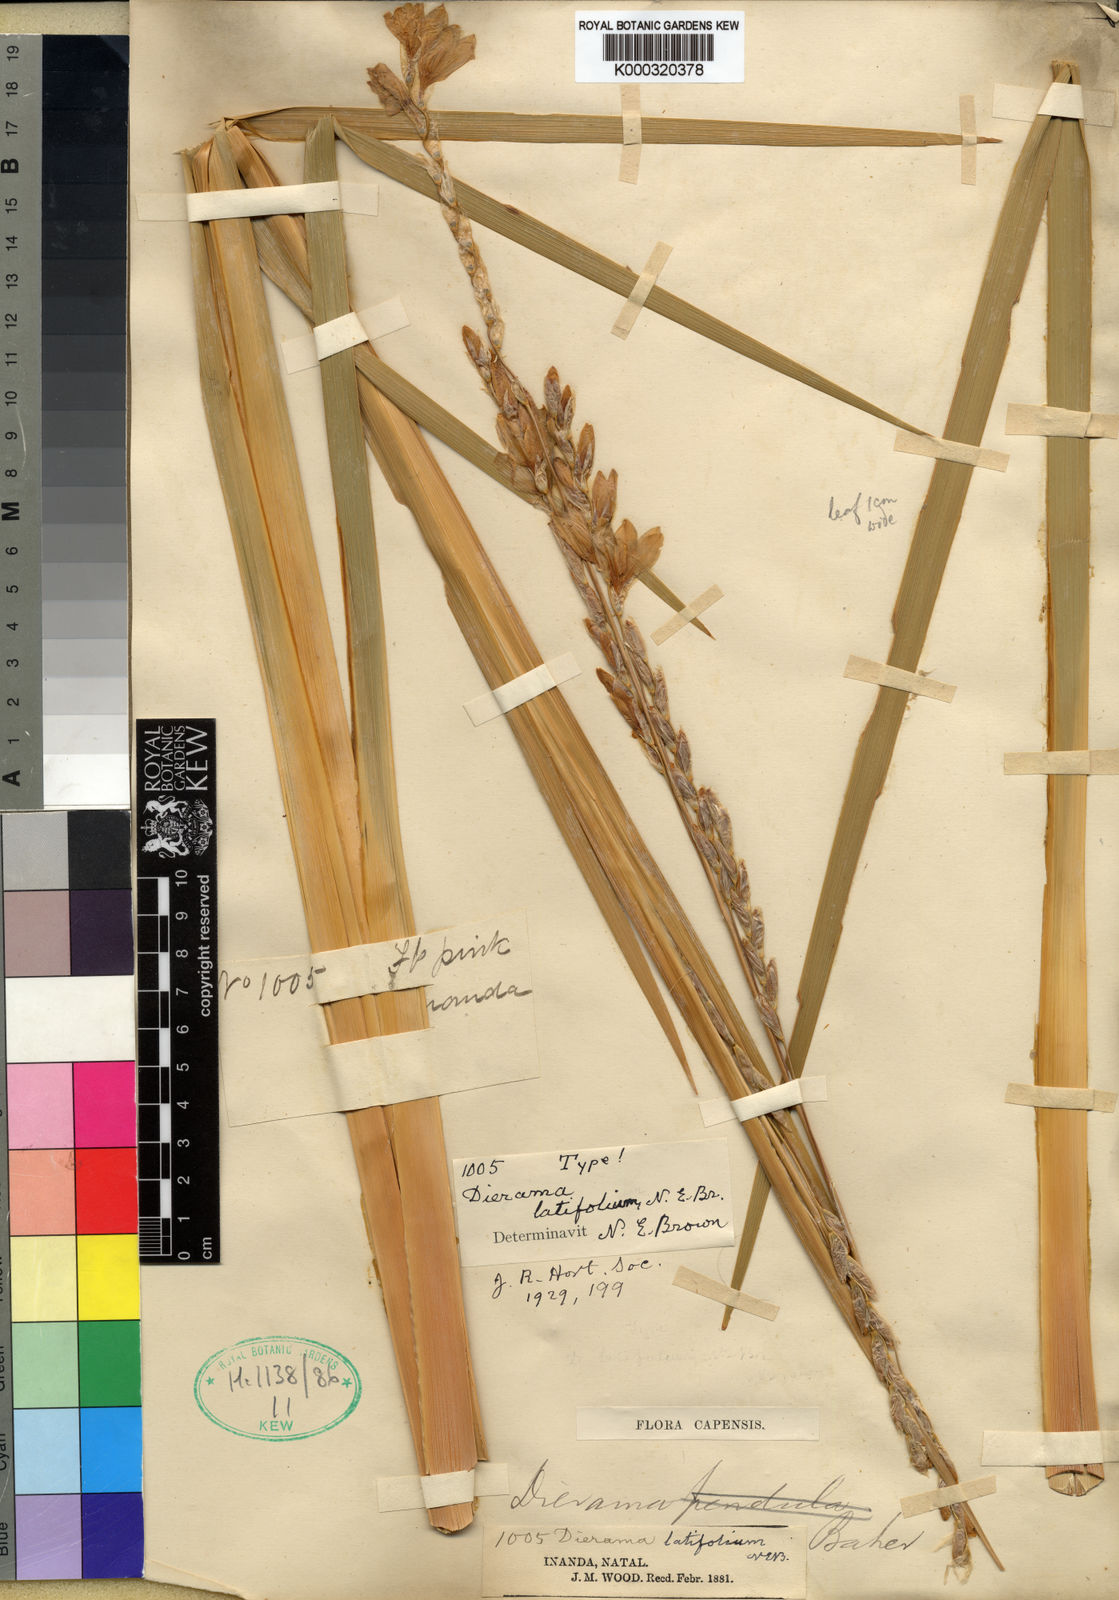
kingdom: Plantae
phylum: Tracheophyta
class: Liliopsida
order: Asparagales
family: Iridaceae
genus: Dierama
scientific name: Dierama latifolium
